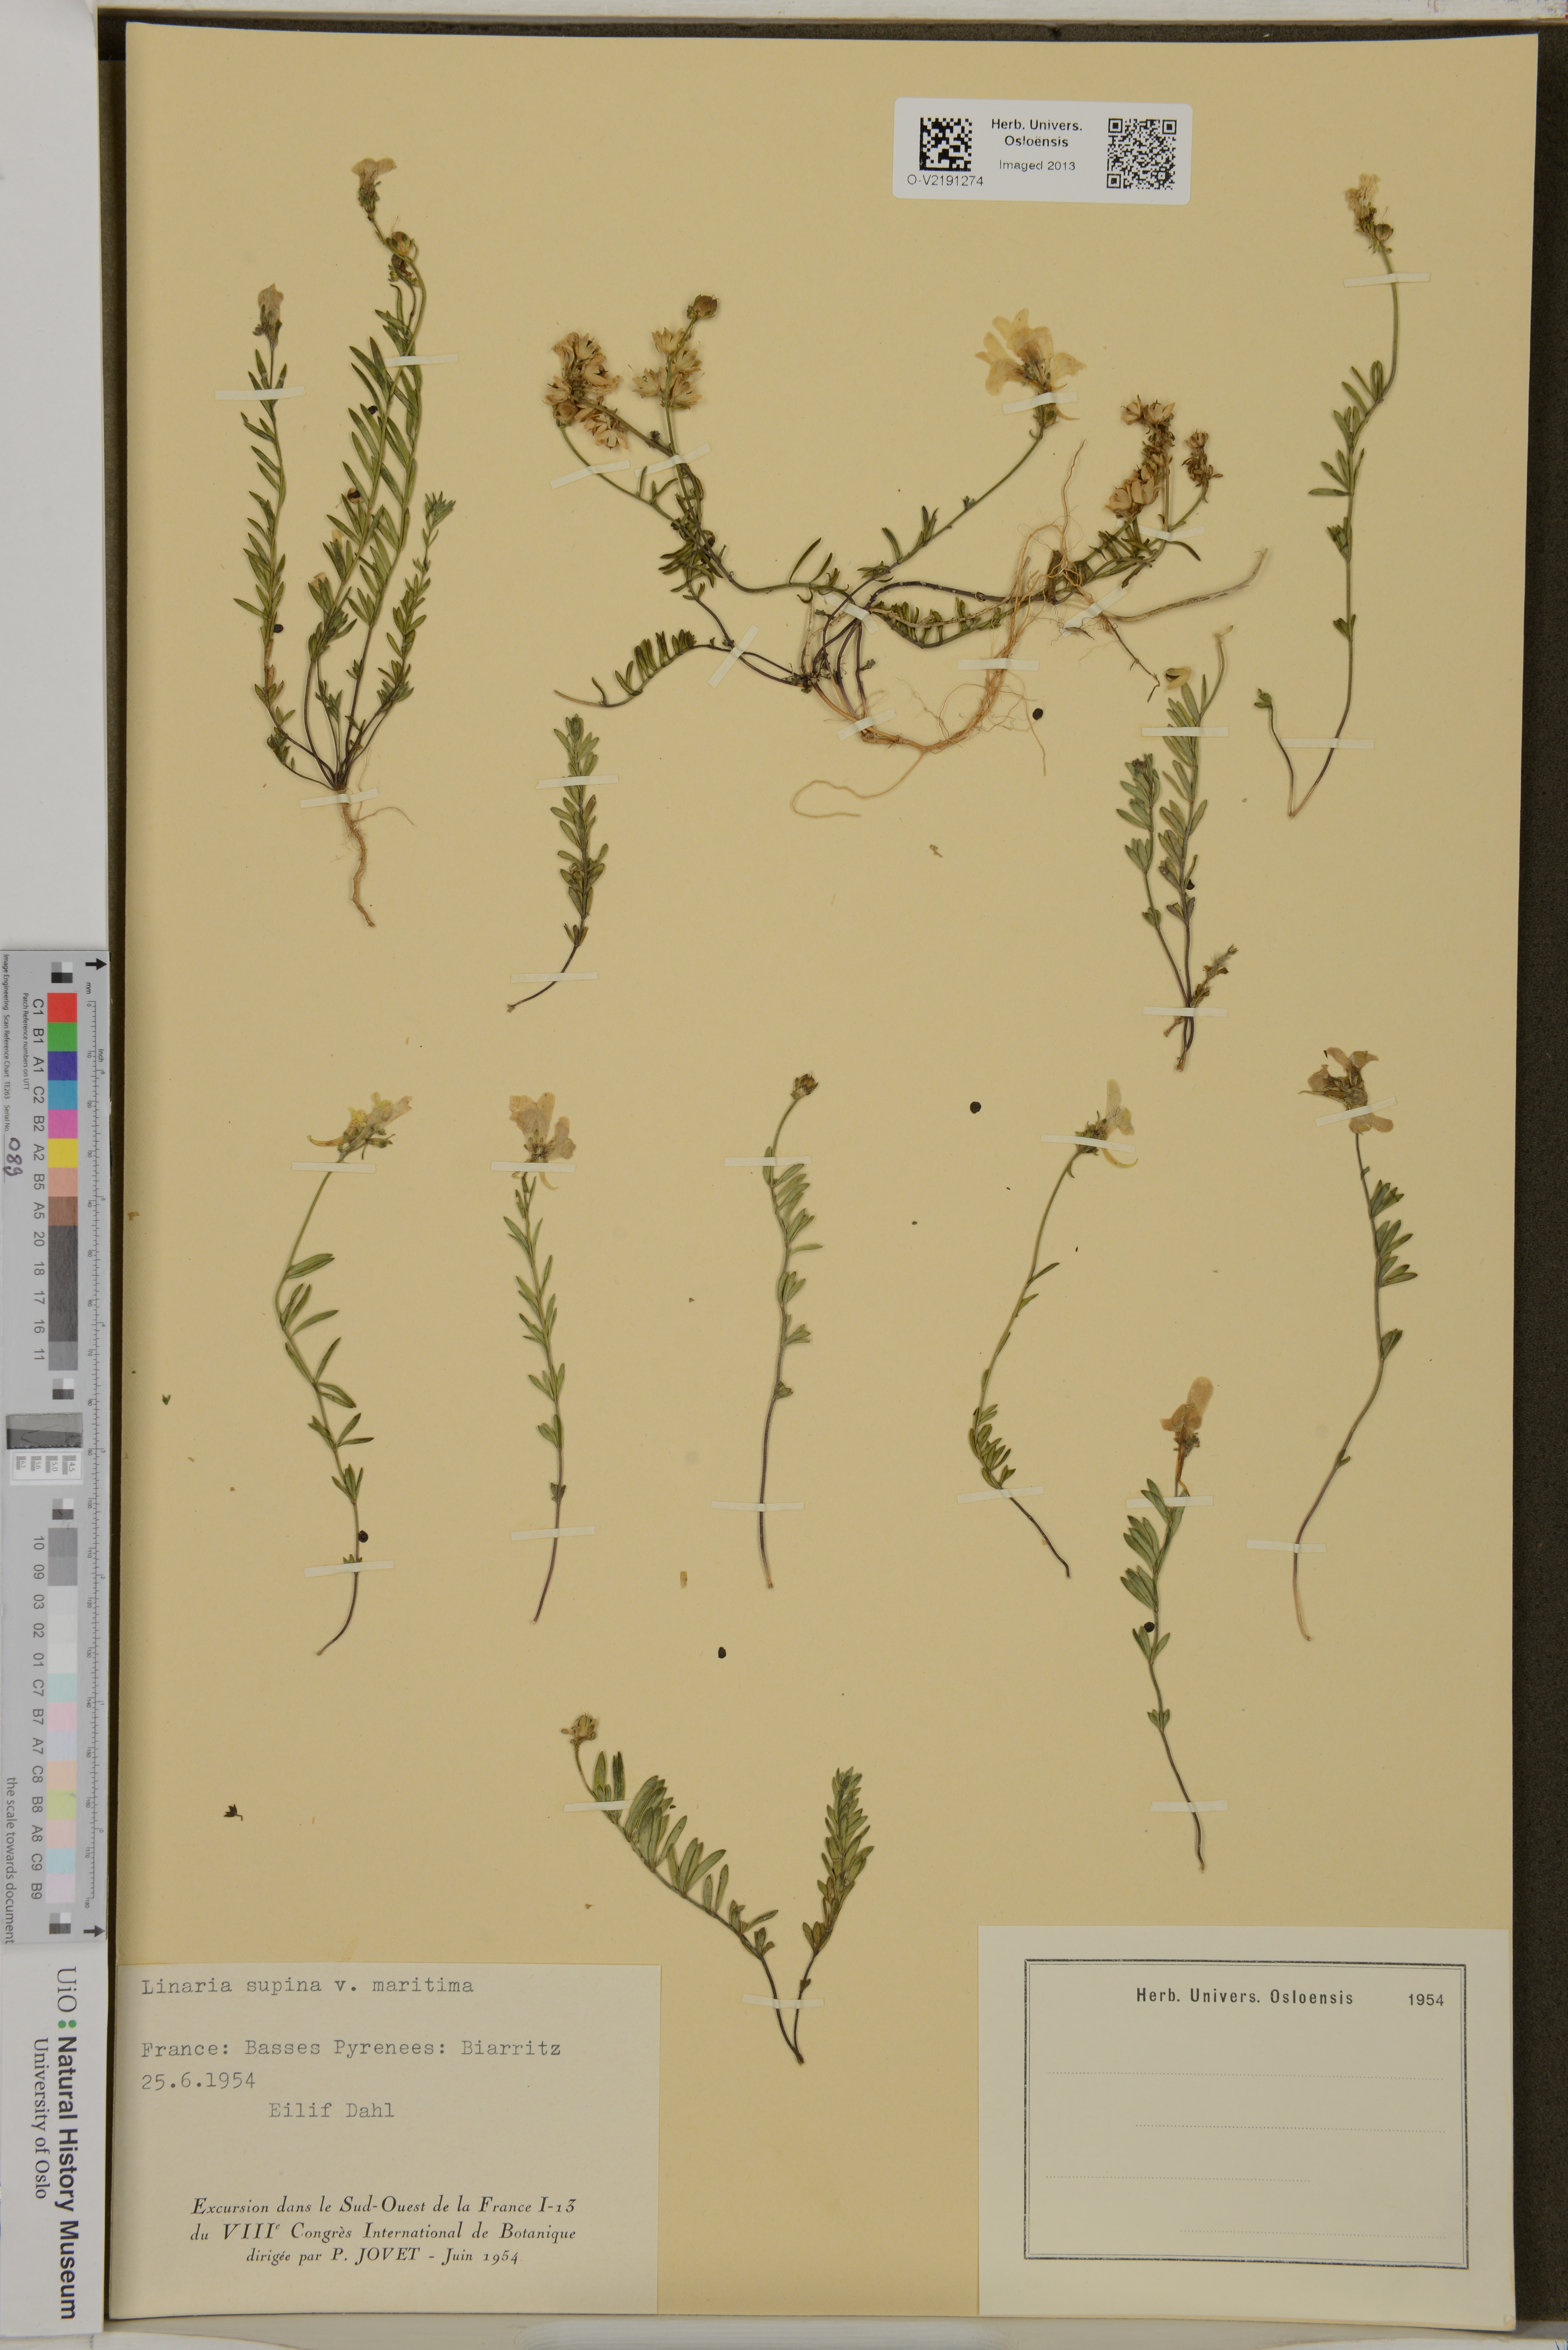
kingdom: Plantae
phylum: Tracheophyta
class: Magnoliopsida
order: Lamiales
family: Plantaginaceae
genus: Linaria
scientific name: Linaria supina
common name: Prostrate toadflax
